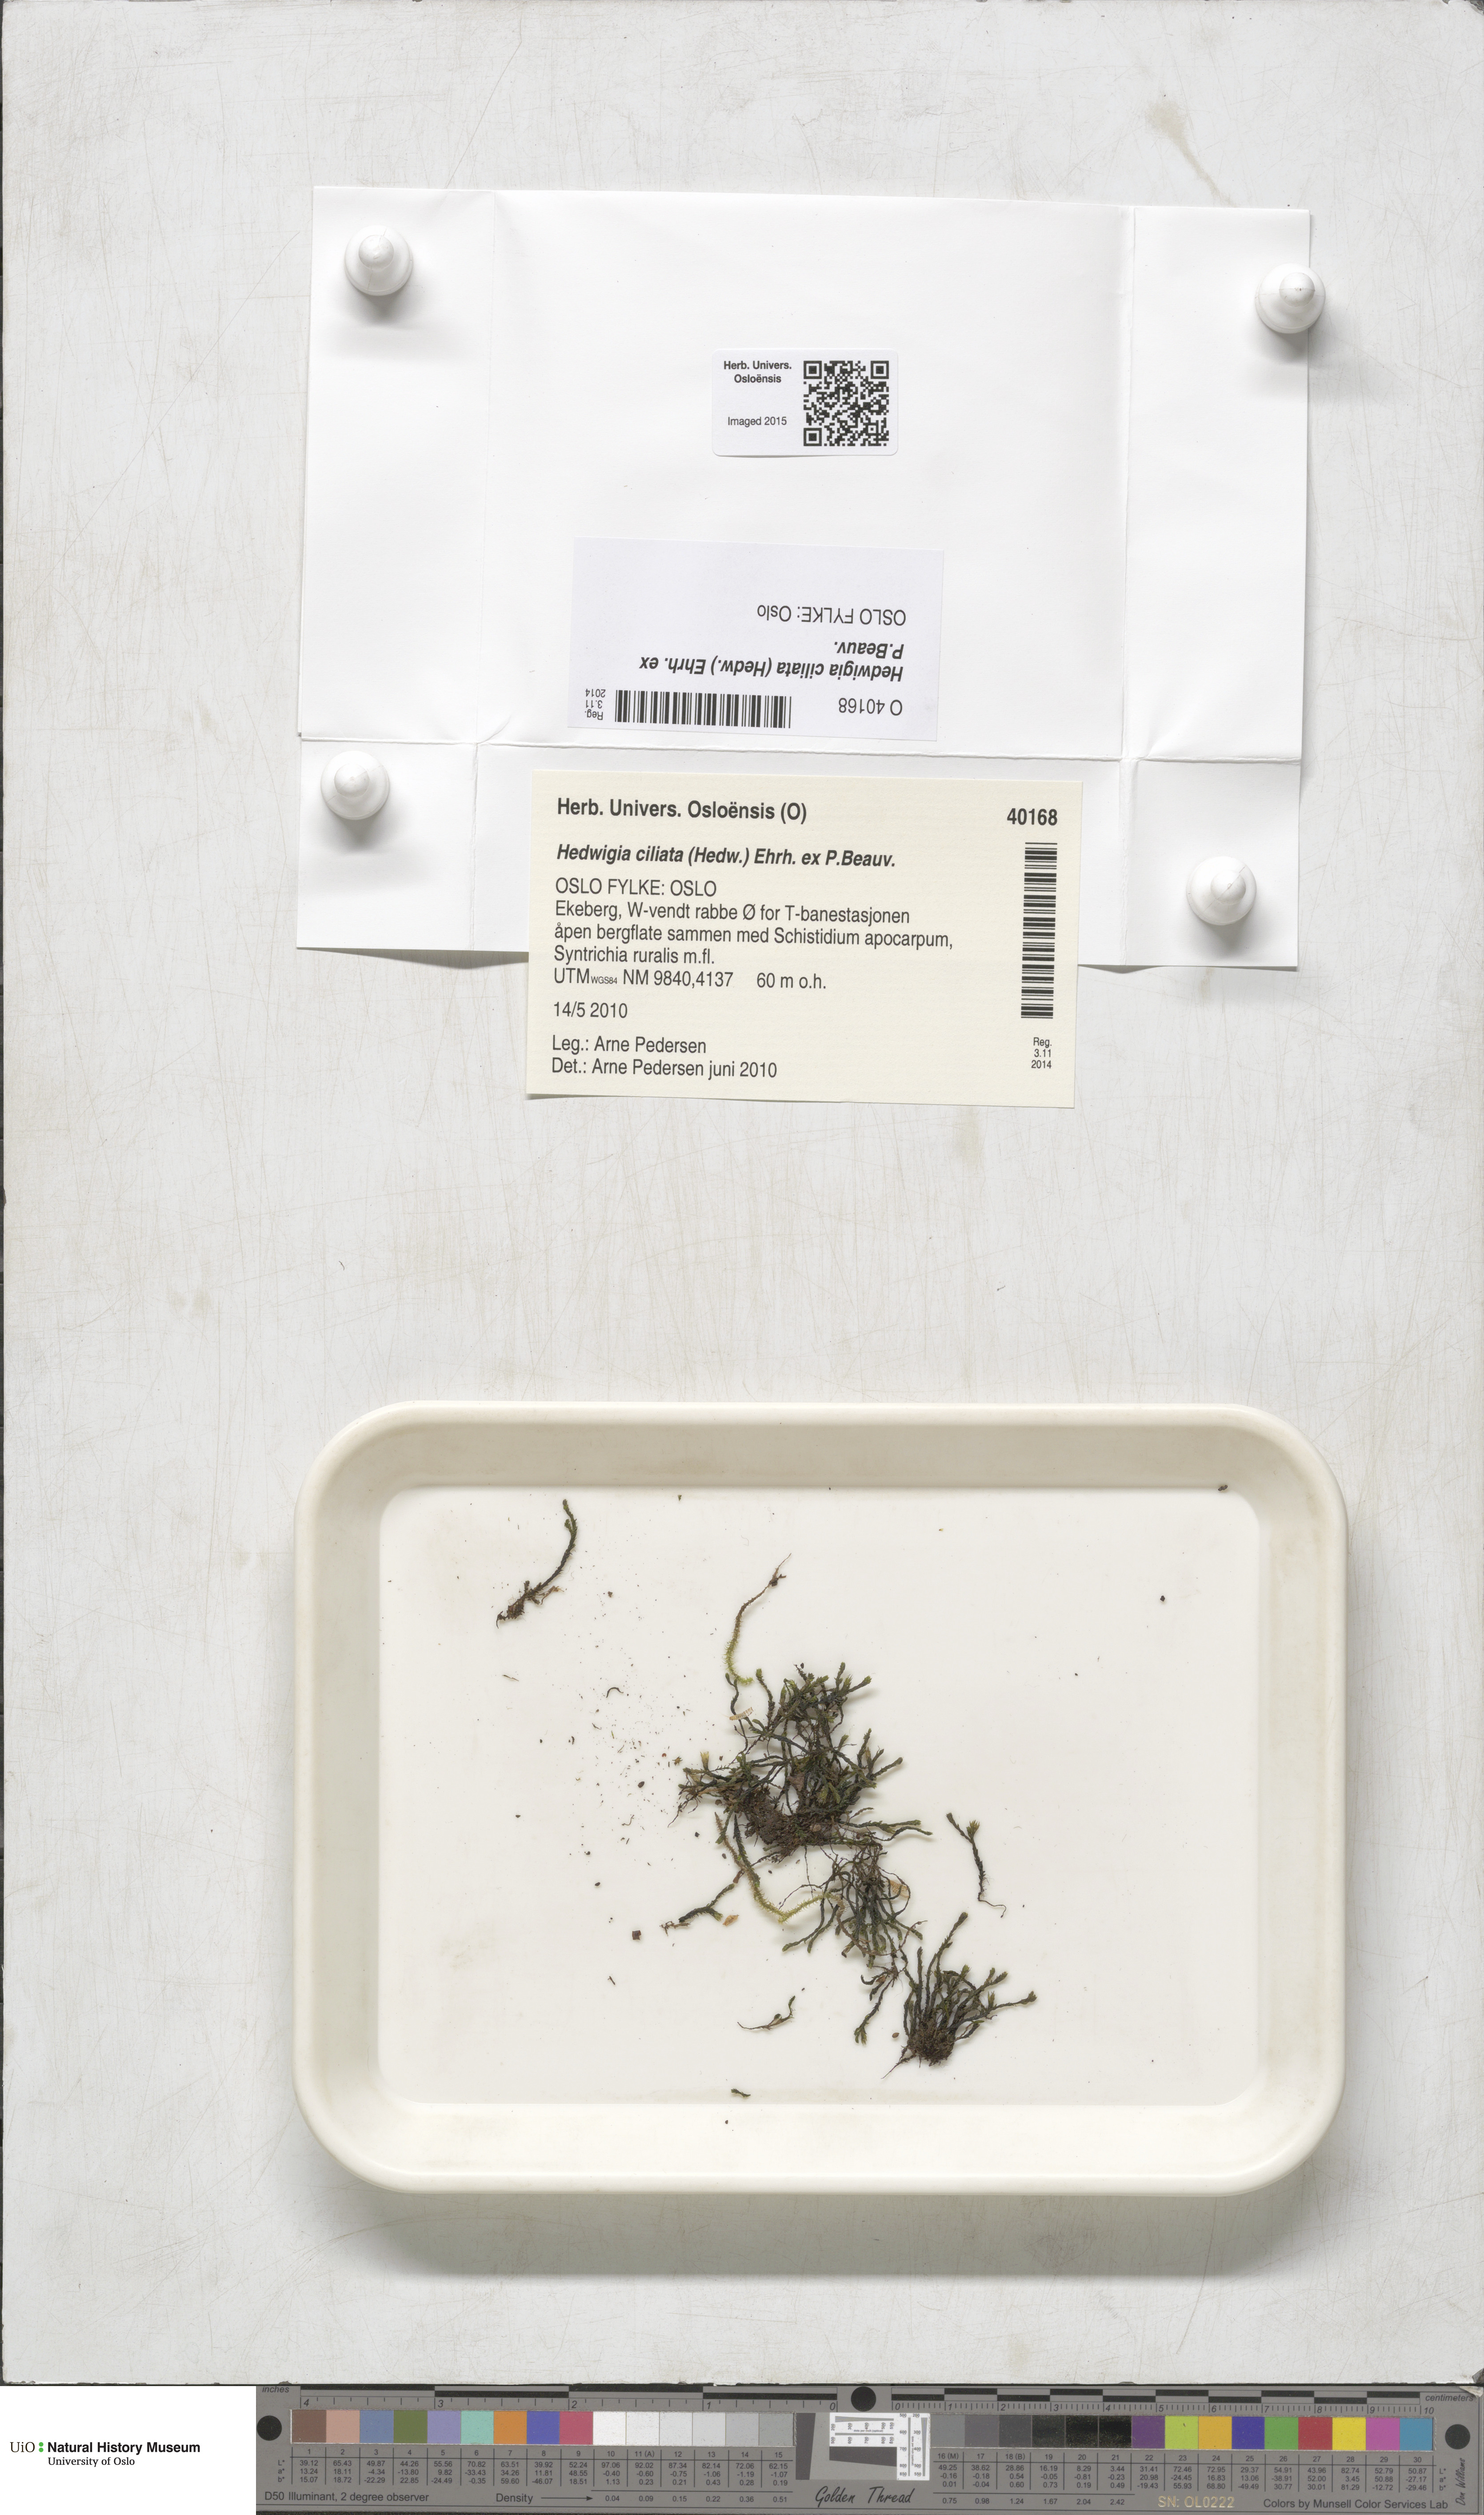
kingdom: Plantae
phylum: Bryophyta
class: Bryopsida
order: Hedwigiales
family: Hedwigiaceae
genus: Hedwigia
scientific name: Hedwigia ciliata
